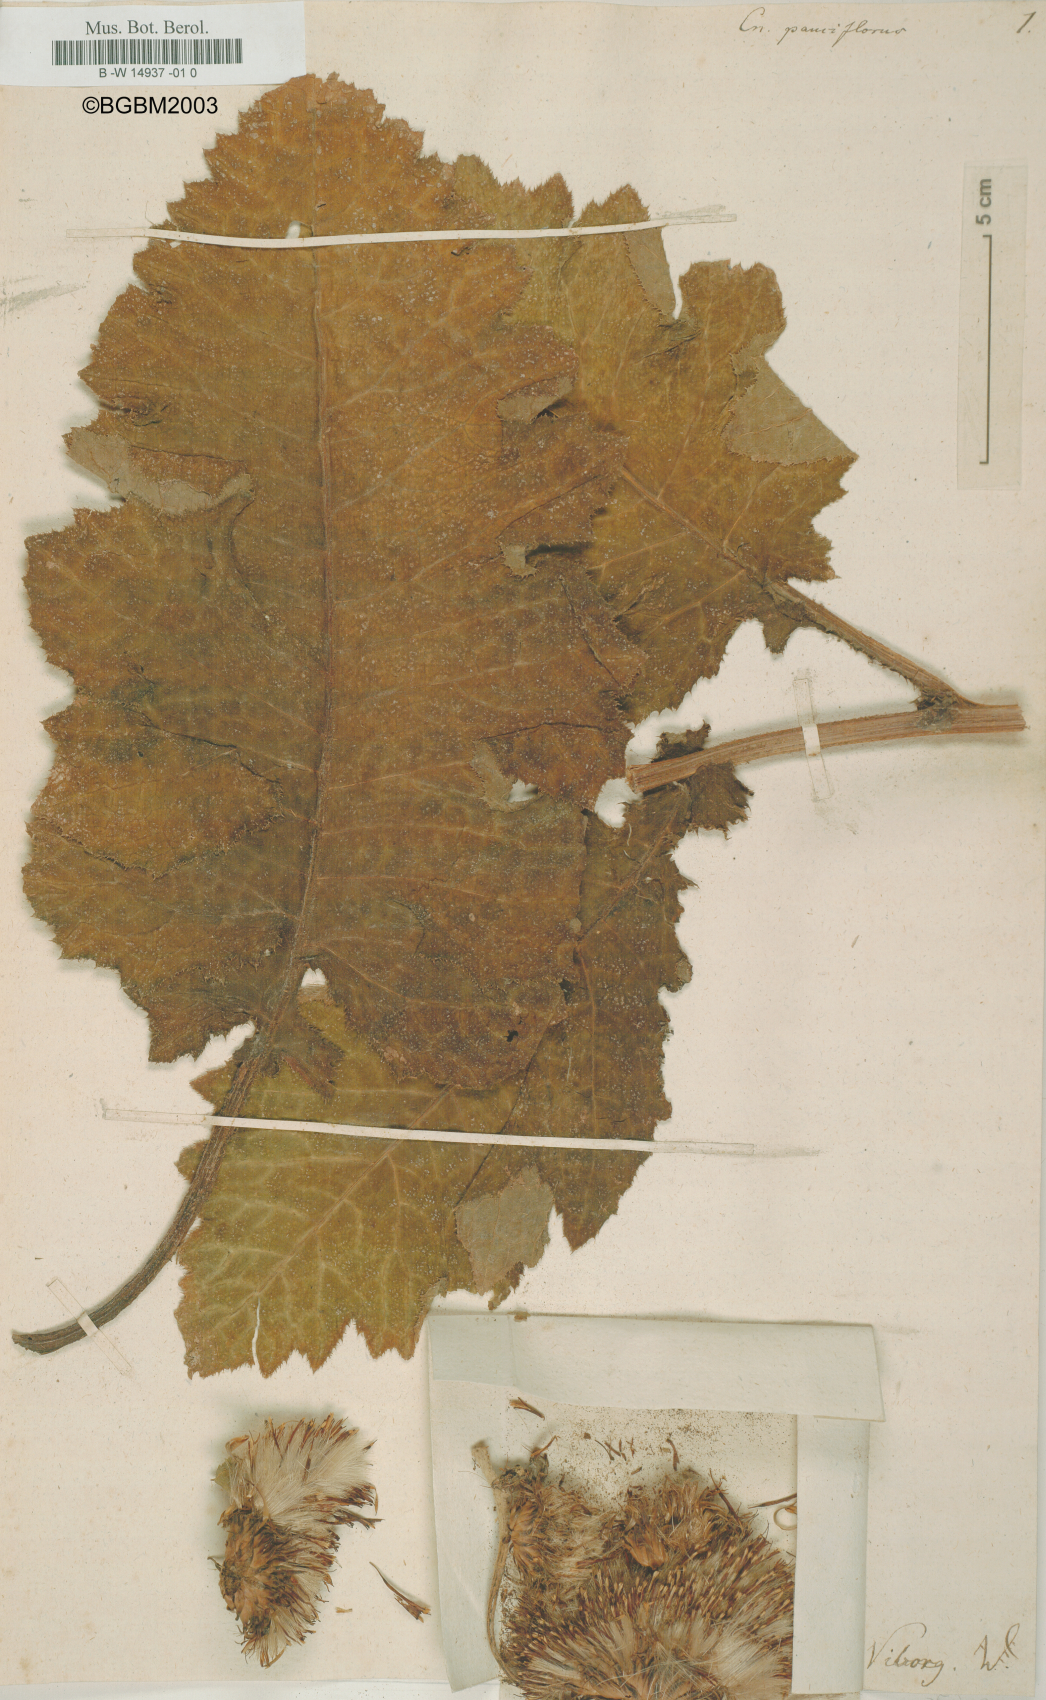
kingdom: Plantae
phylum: Tracheophyta
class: Magnoliopsida
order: Asterales
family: Asteraceae
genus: Cirsium
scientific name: Cirsium waldsteinii
